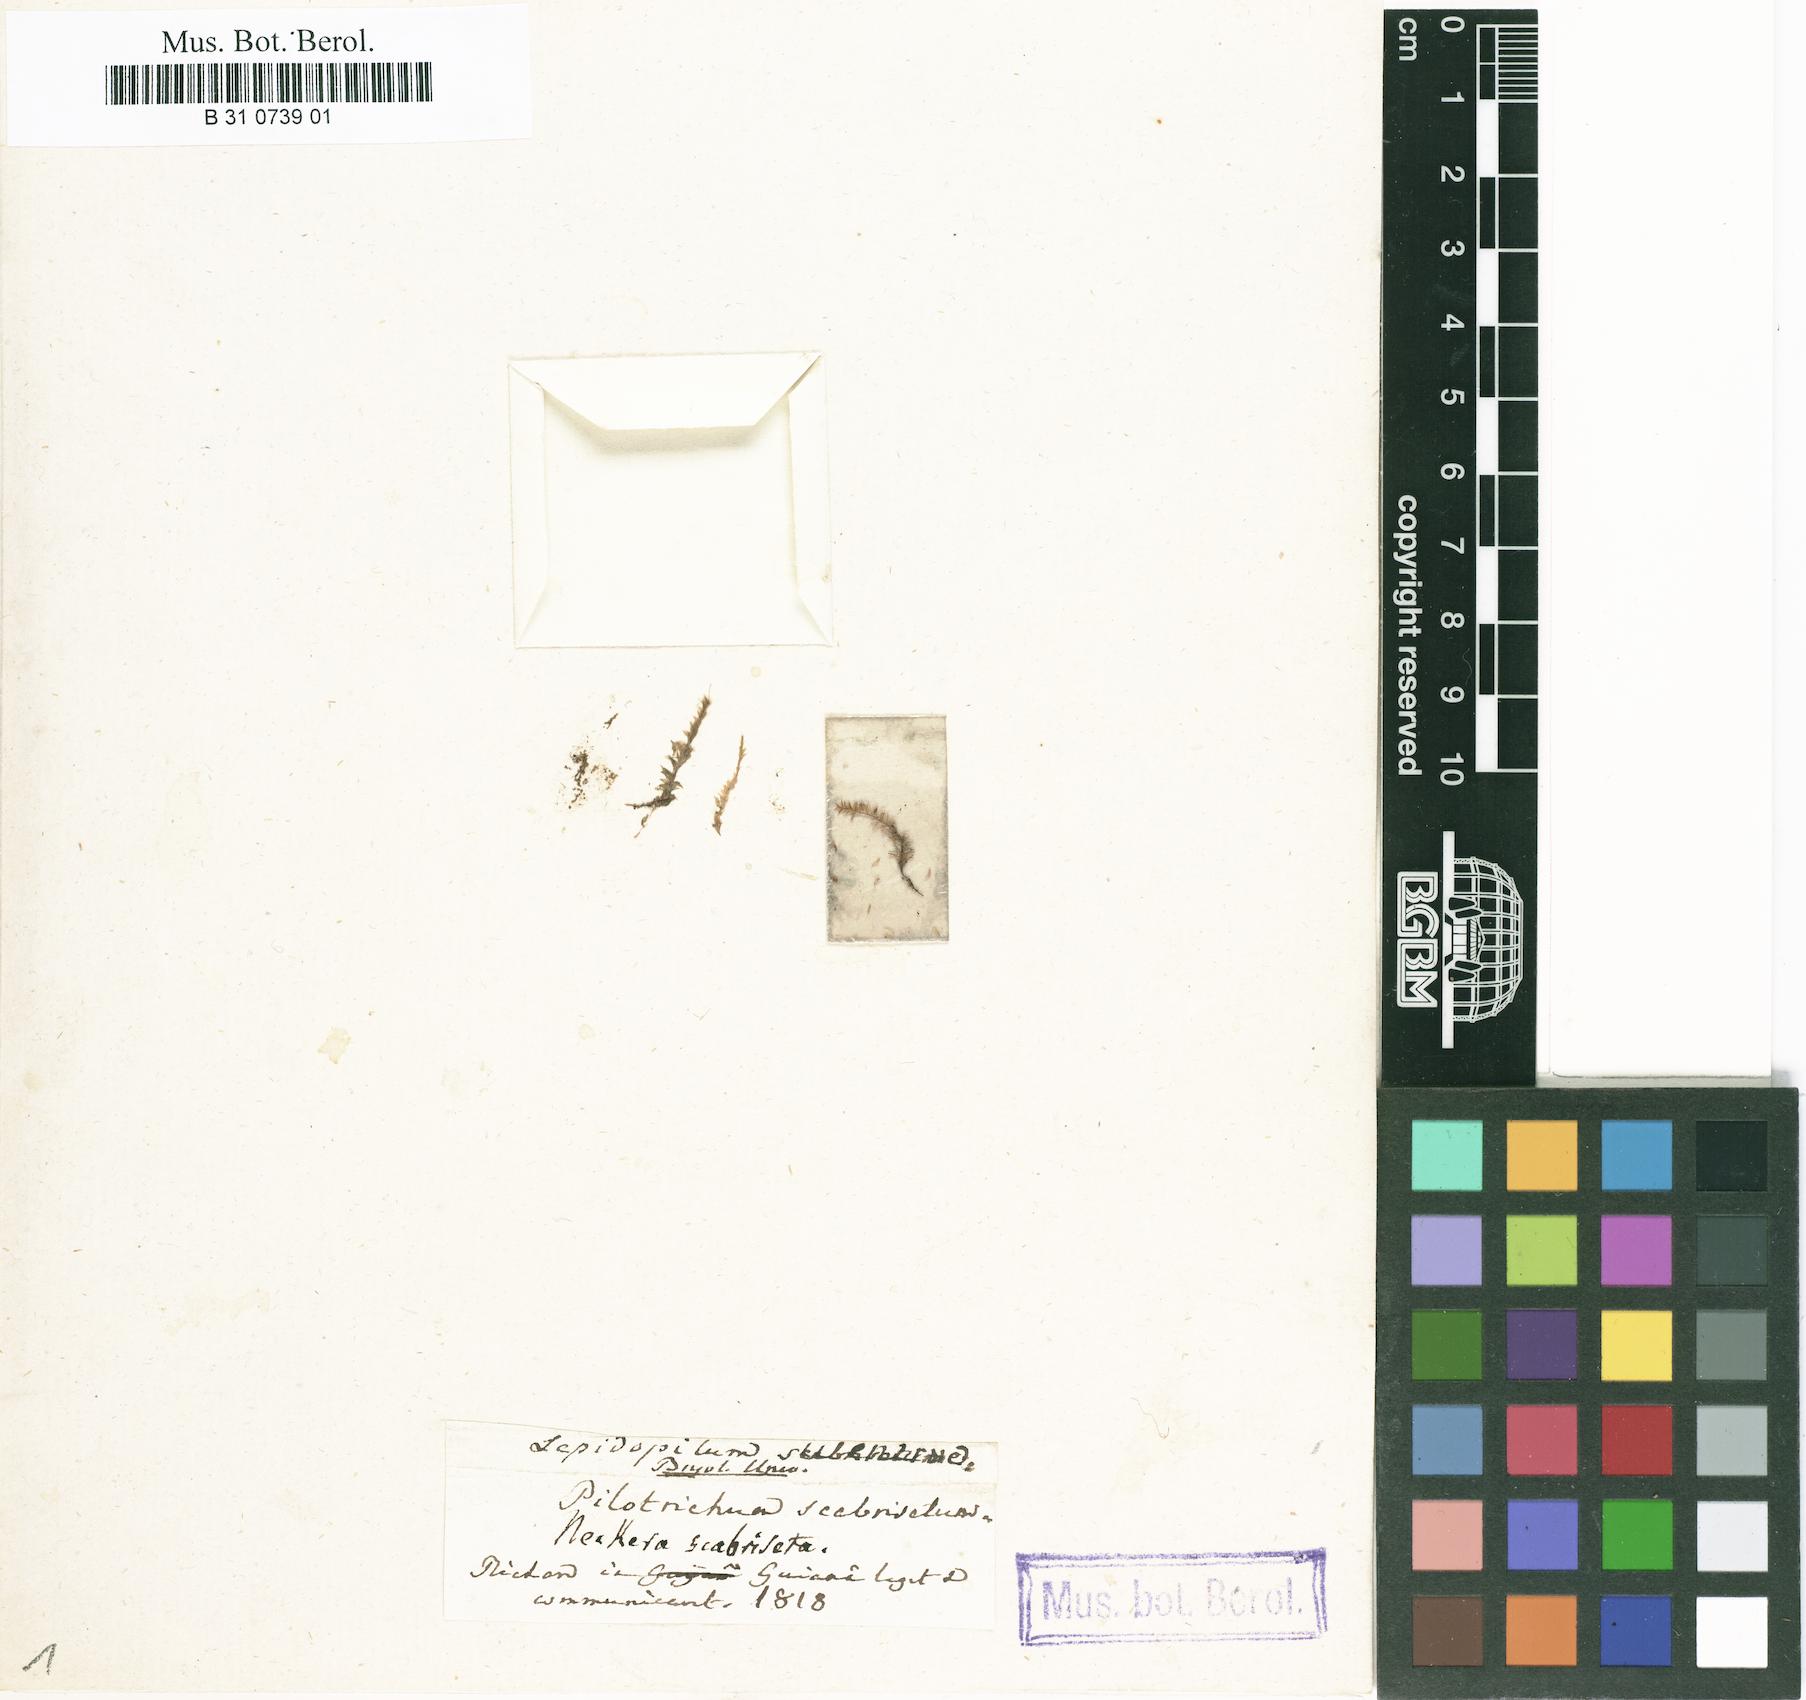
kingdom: Plantae
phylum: Bryophyta
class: Bryopsida
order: Hookeriales
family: Pilotrichaceae
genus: Lepidopilum
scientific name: Lepidopilum scabrisetum
